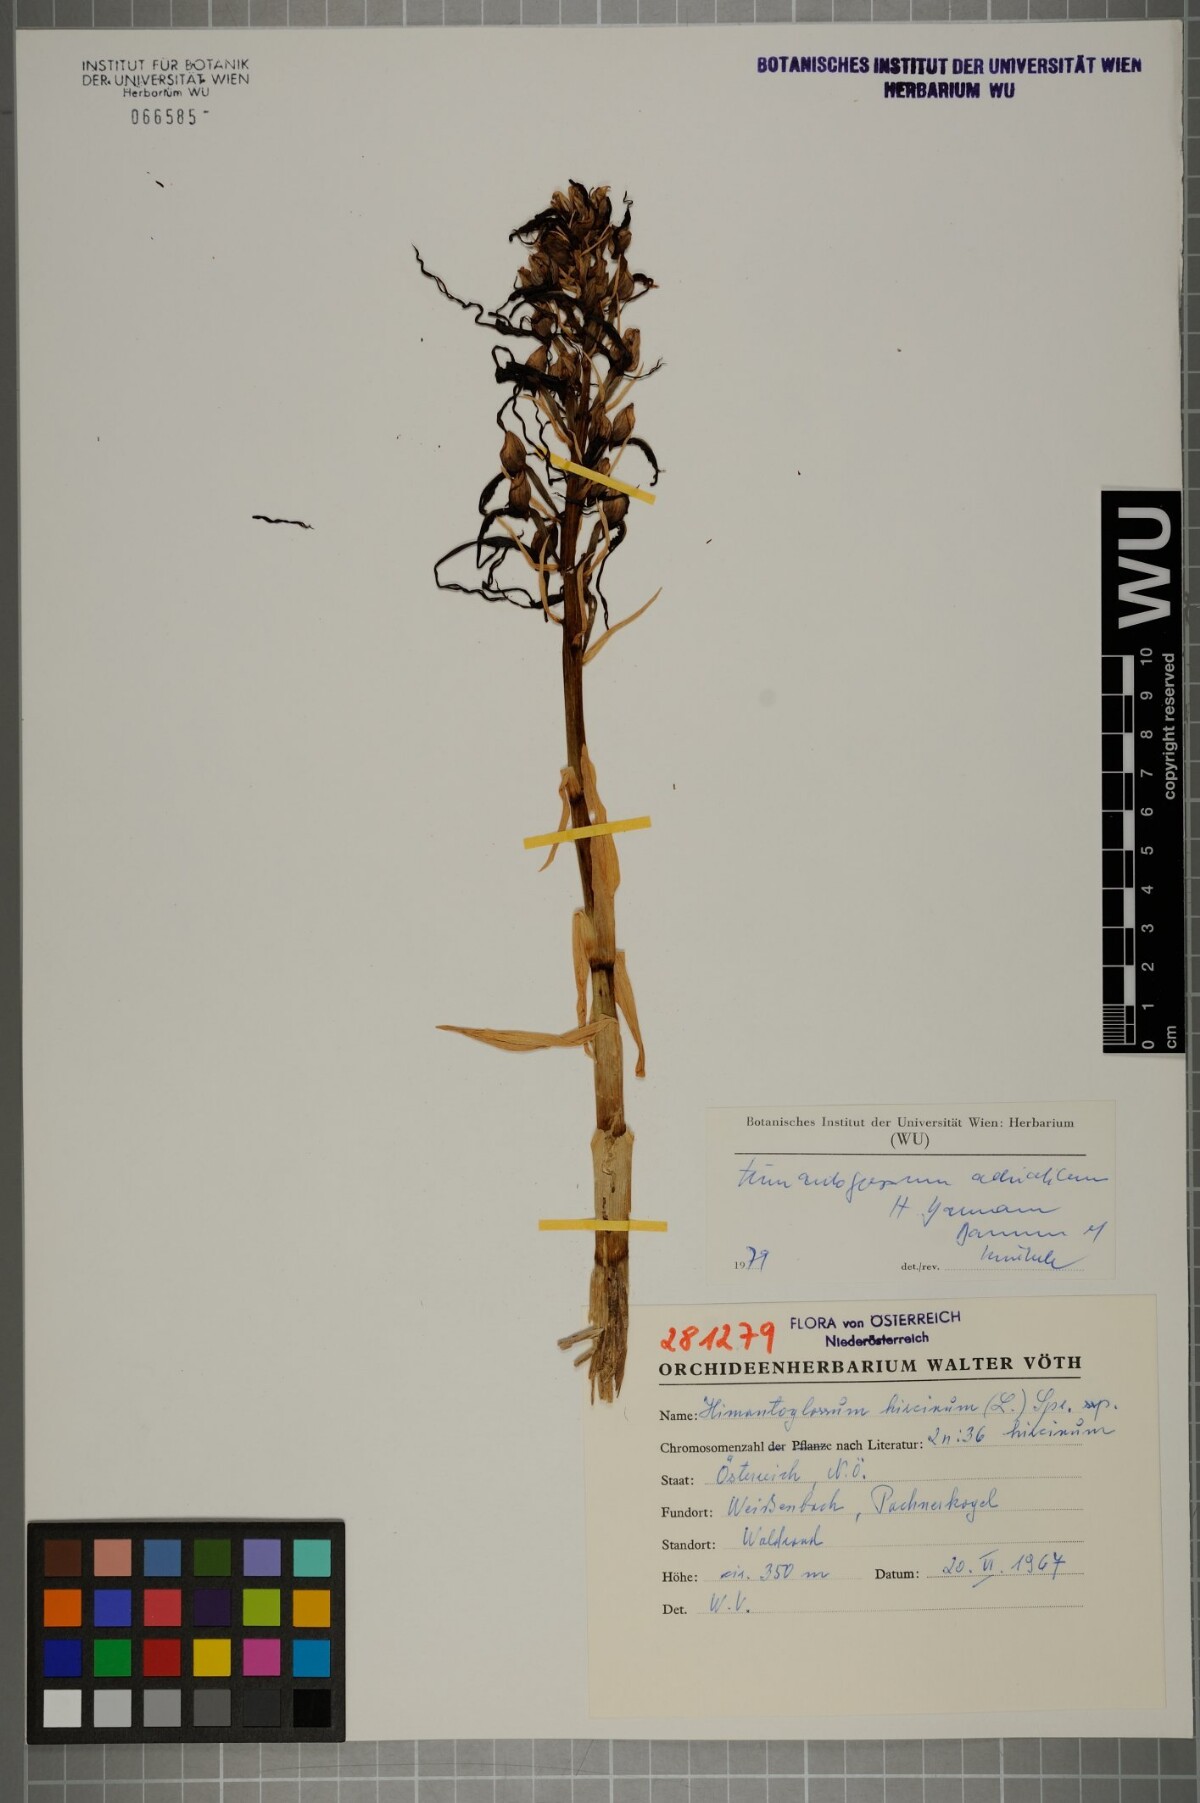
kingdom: Plantae
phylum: Tracheophyta
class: Liliopsida
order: Asparagales
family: Orchidaceae
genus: Himantoglossum
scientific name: Himantoglossum adriaticum
